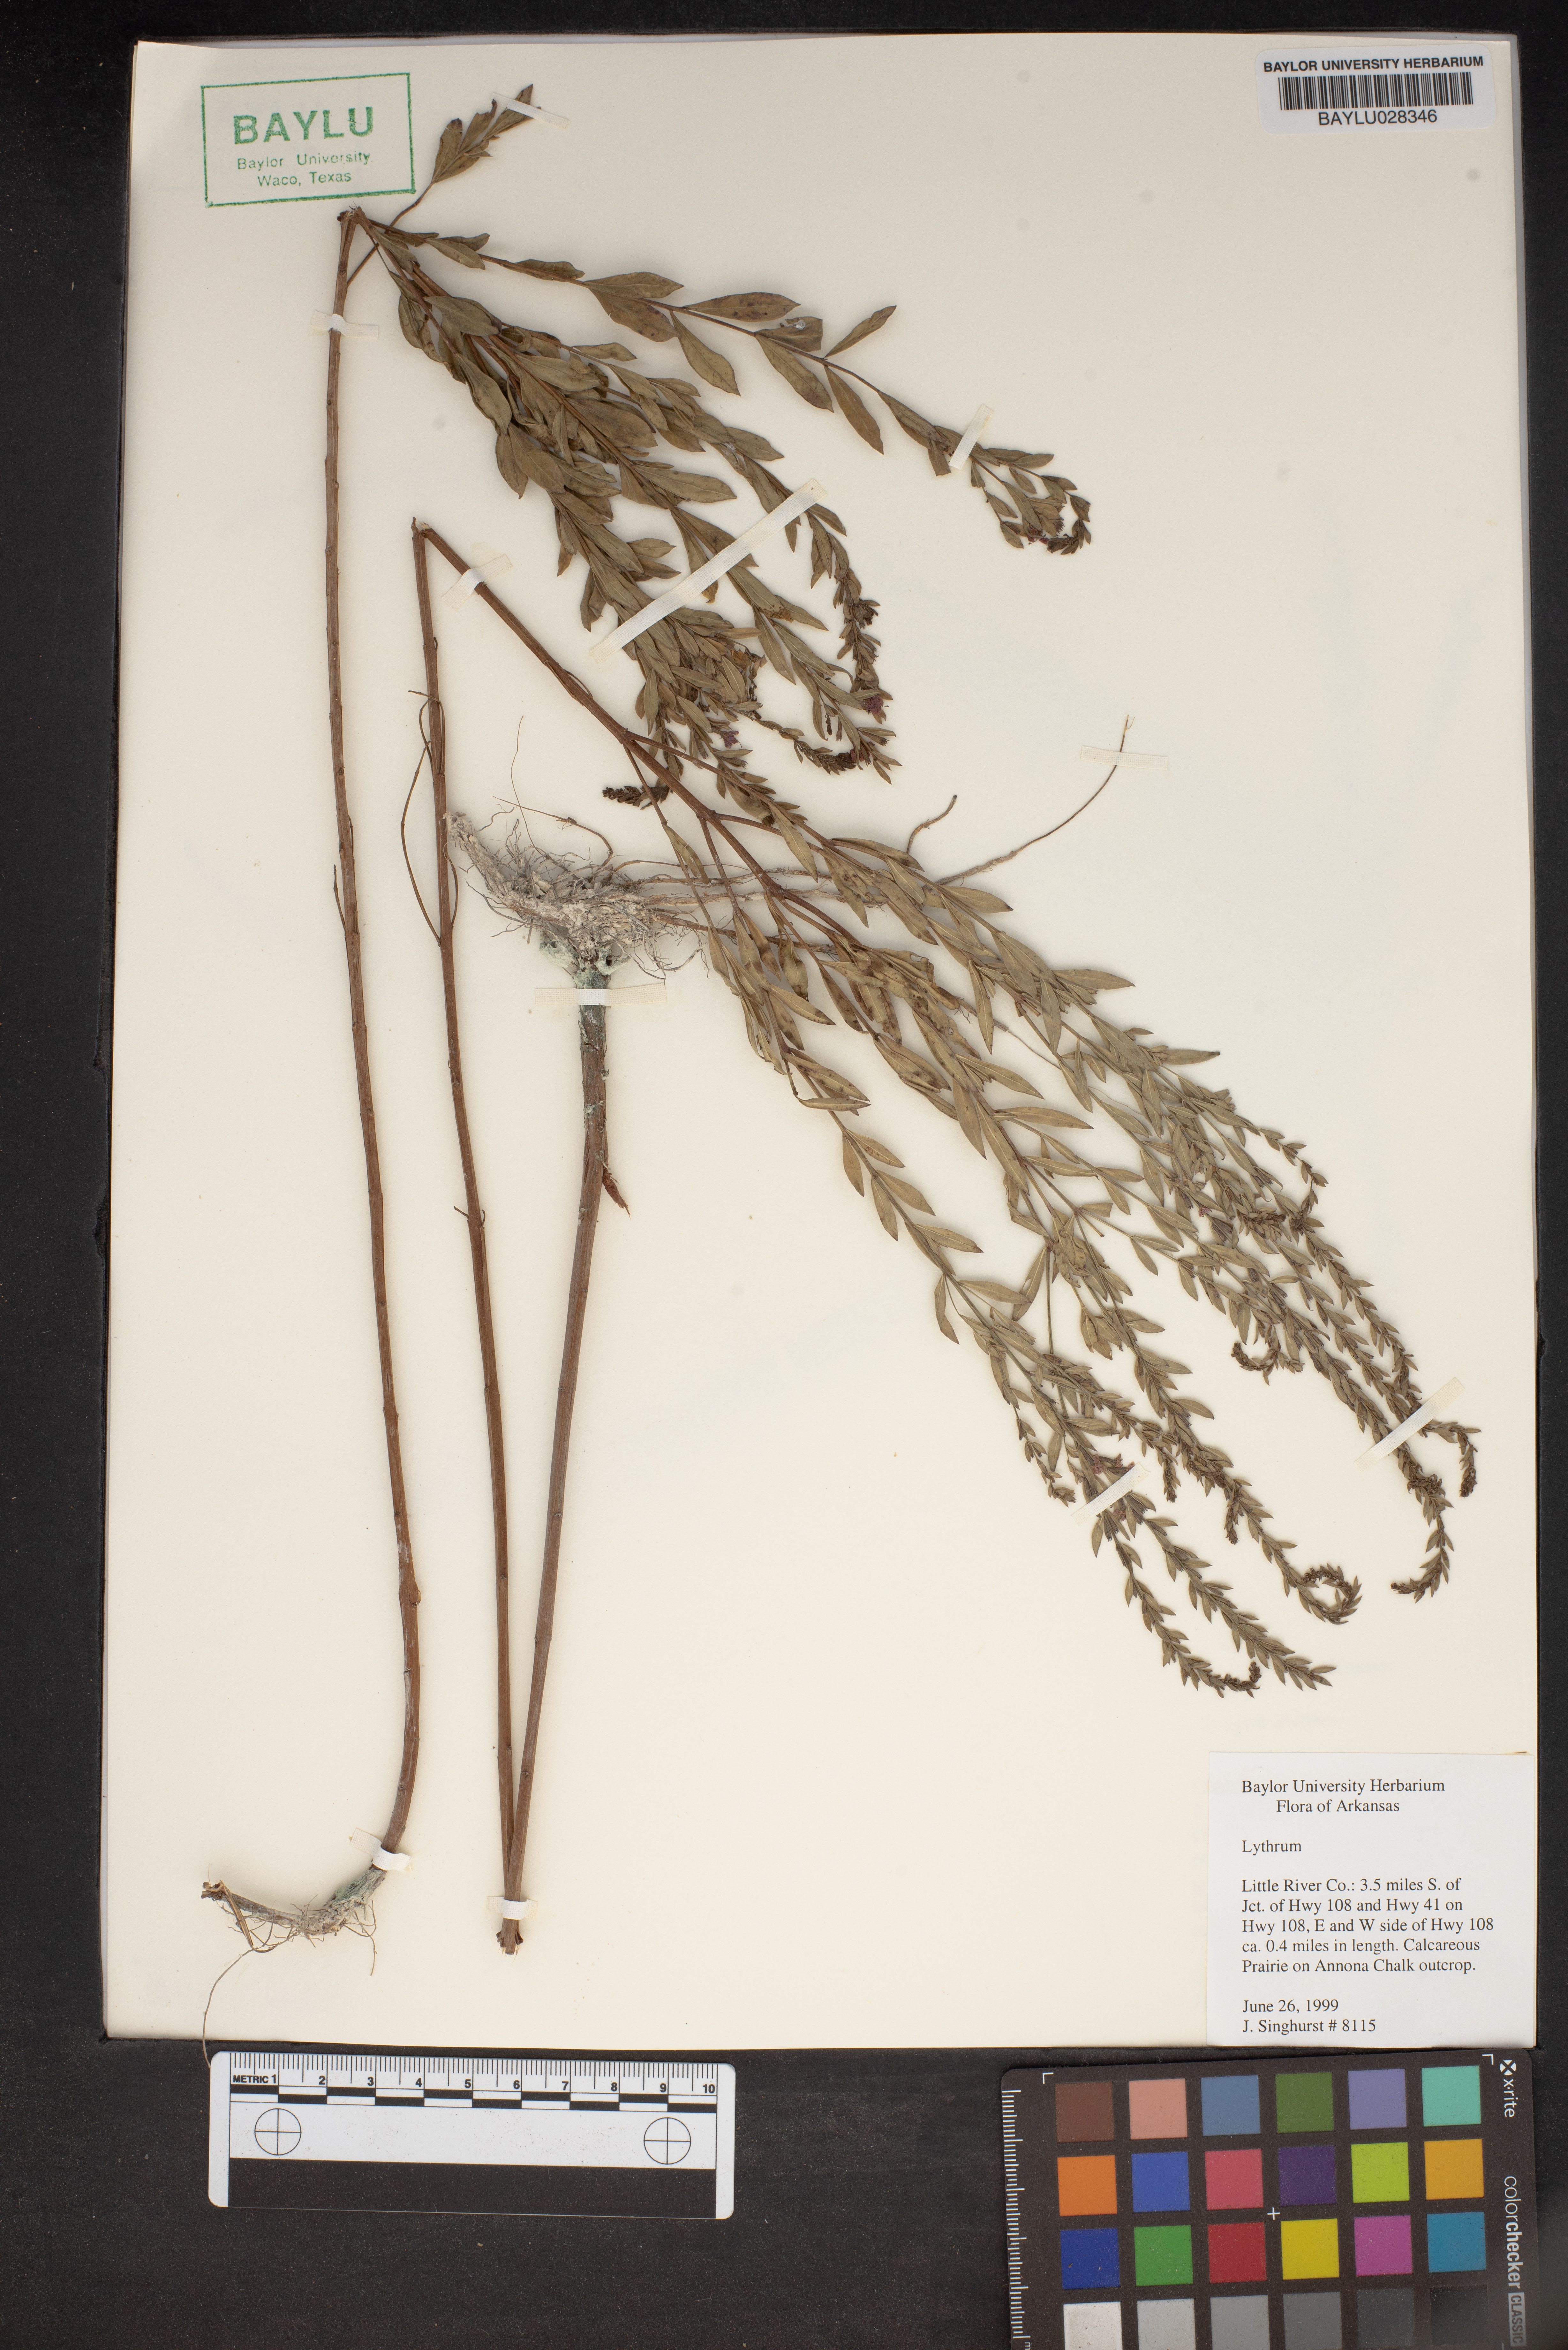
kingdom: Plantae
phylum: Tracheophyta
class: Magnoliopsida
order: Myrtales
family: Lythraceae
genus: Lythrum
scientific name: Lythrum
